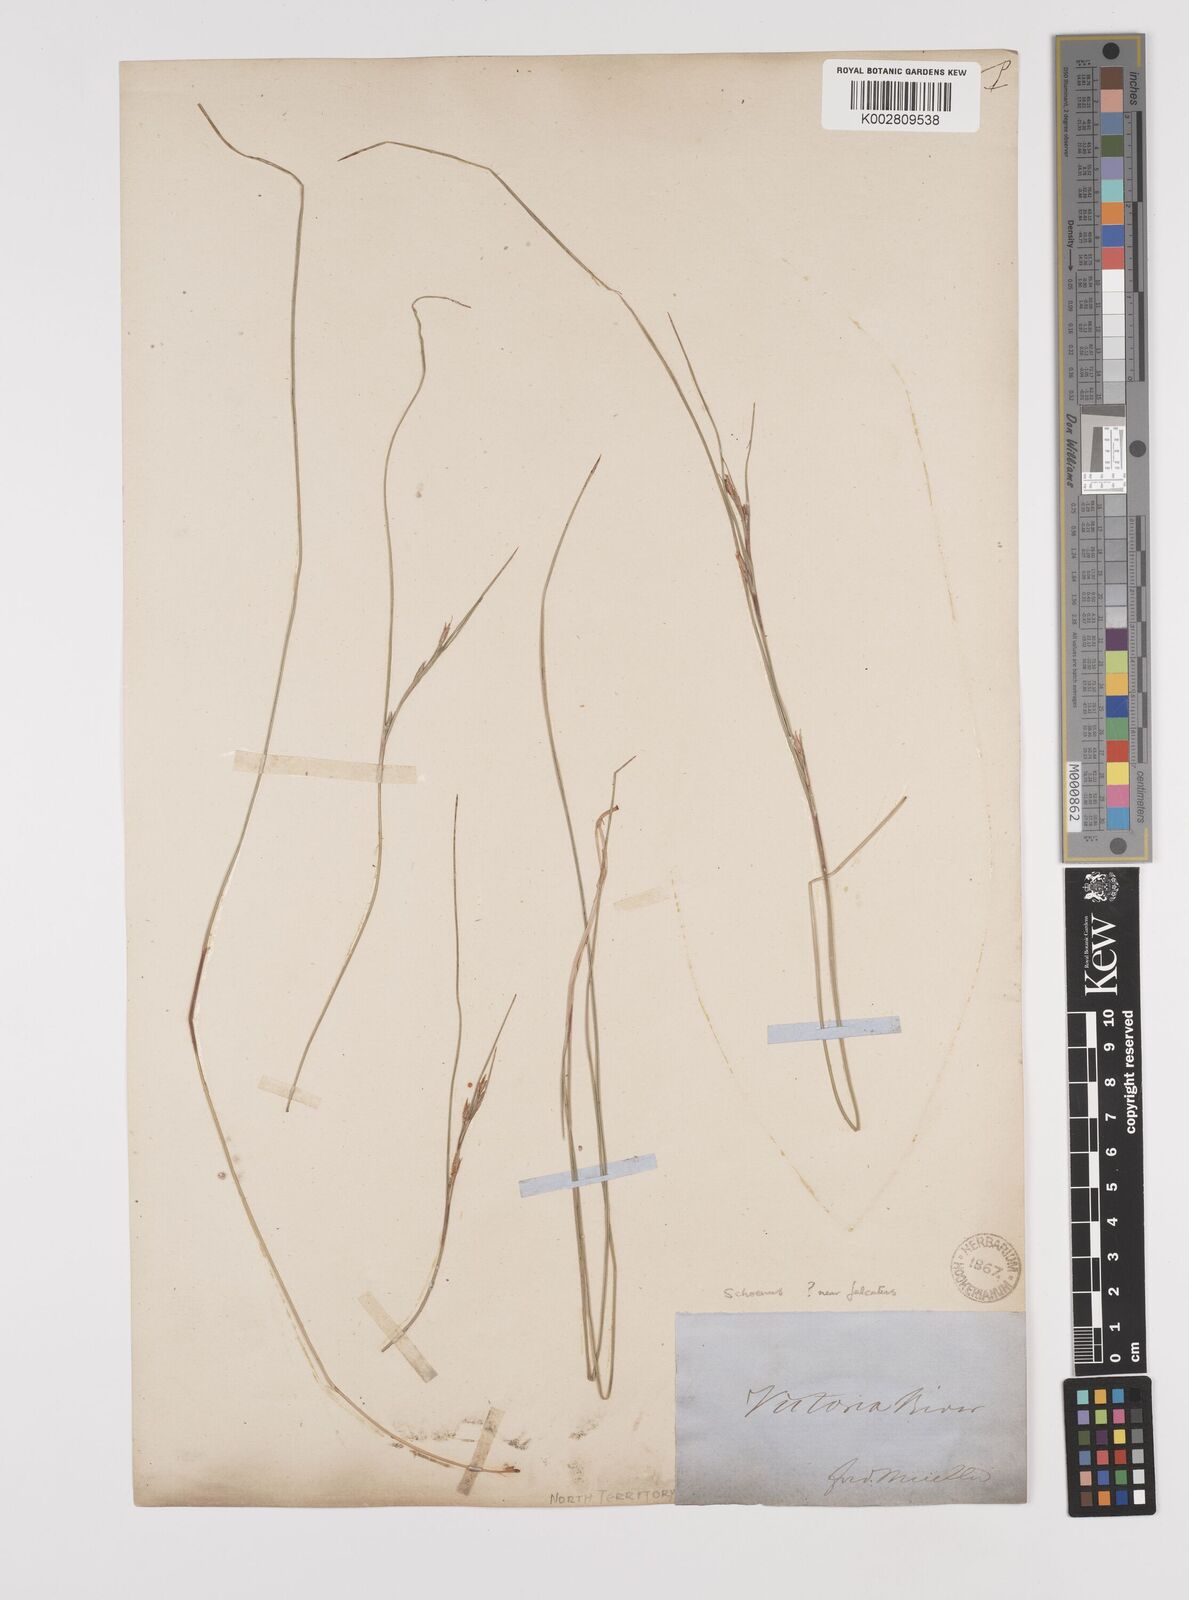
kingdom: Plantae
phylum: Tracheophyta
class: Liliopsida
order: Poales
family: Cyperaceae
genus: Schoenus
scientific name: Schoenus
